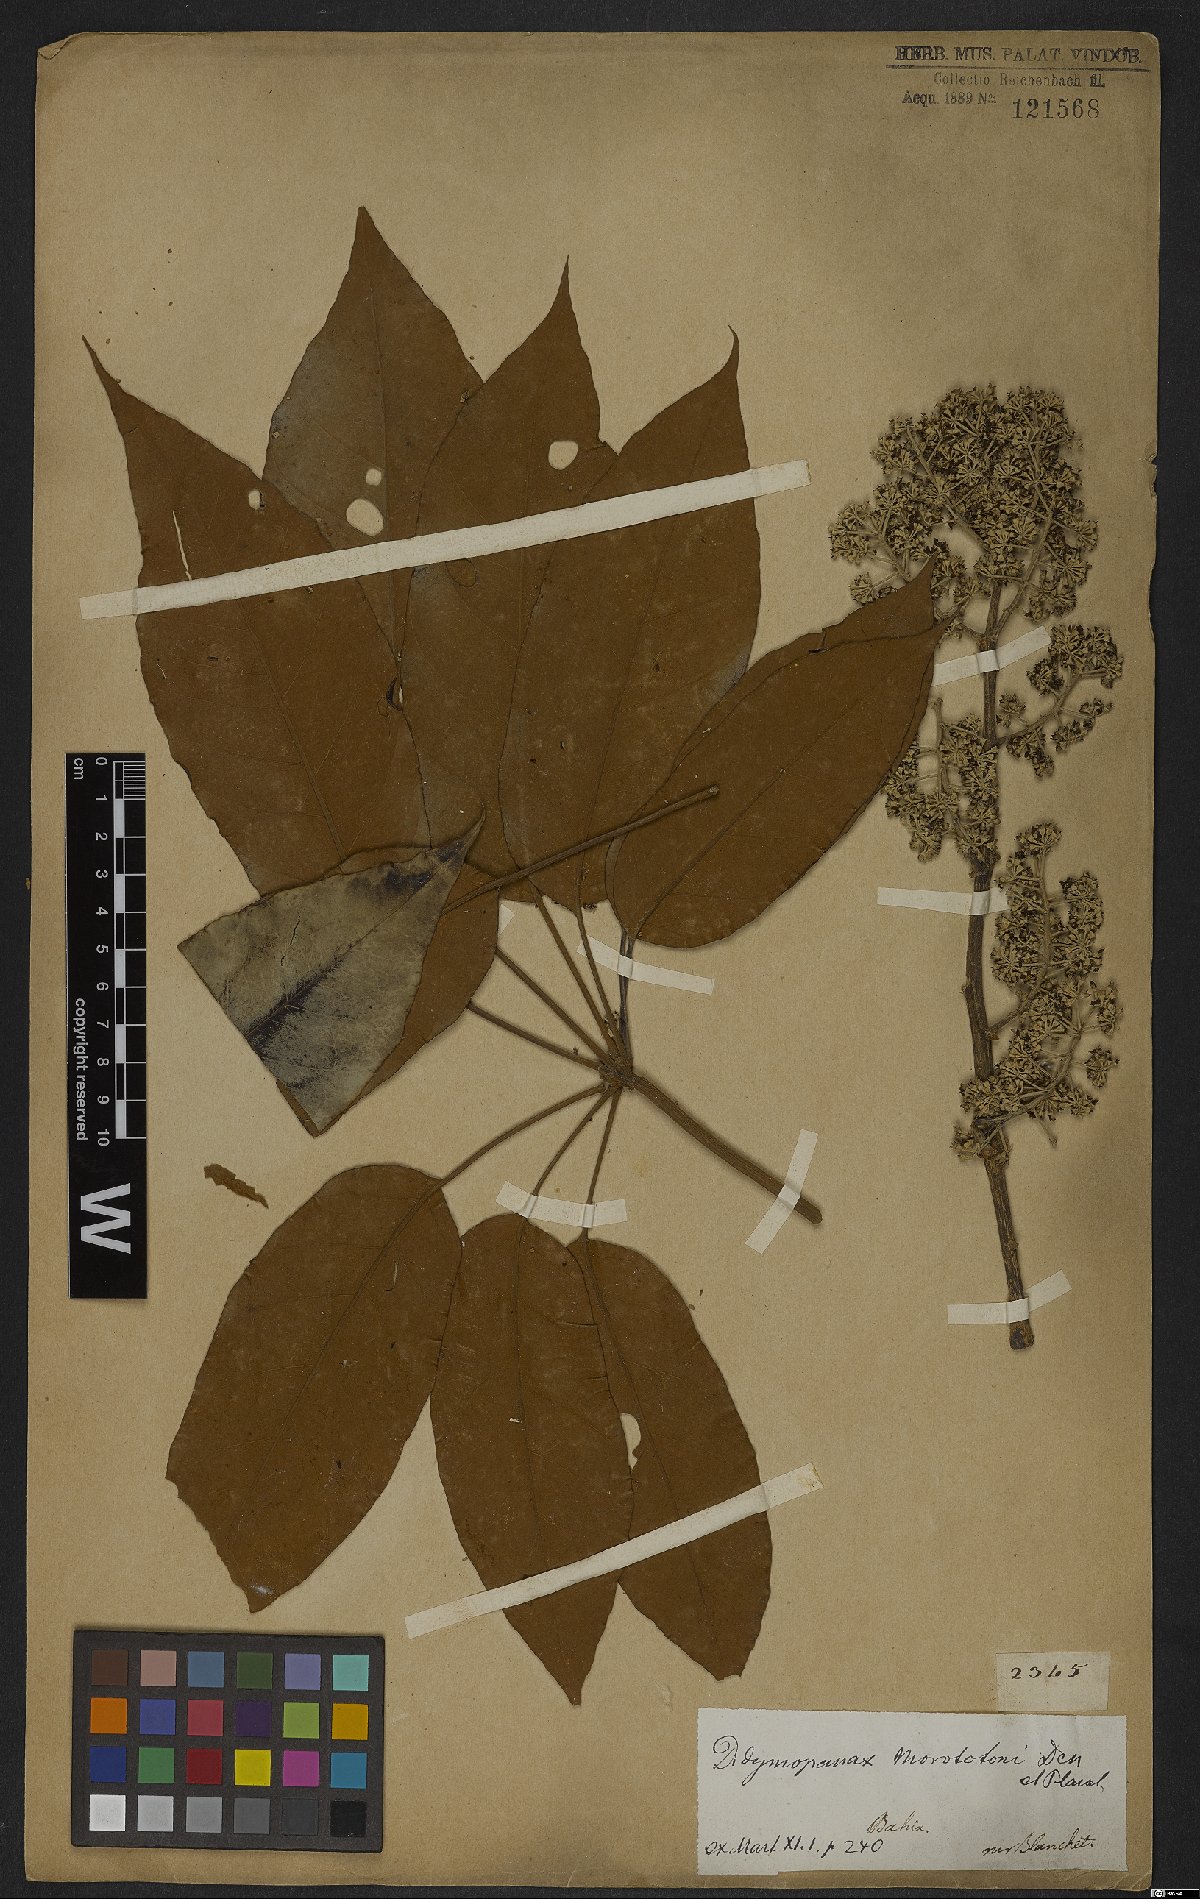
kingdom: Plantae
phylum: Tracheophyta
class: Magnoliopsida
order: Apiales
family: Araliaceae
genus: Didymopanax
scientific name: Didymopanax morototoni
